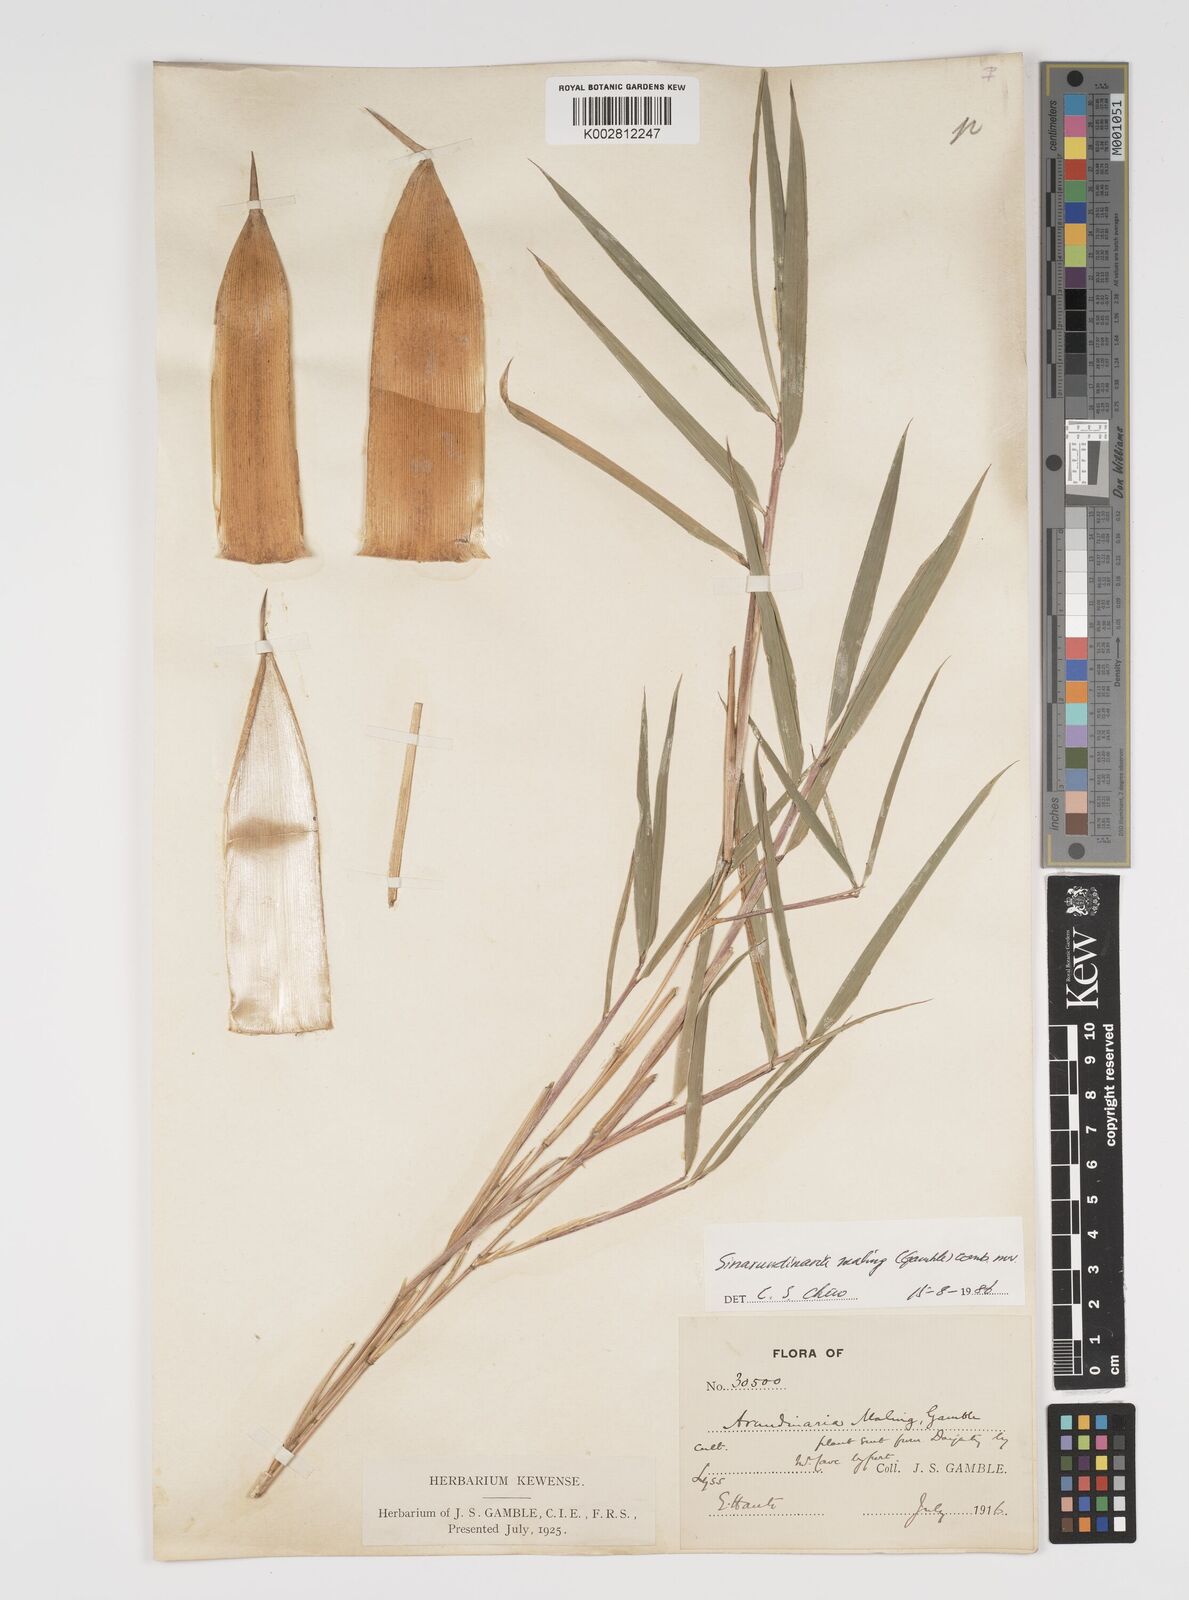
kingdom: Plantae
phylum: Tracheophyta
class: Liliopsida
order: Poales
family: Poaceae
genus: Yushania
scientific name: Yushania maling
